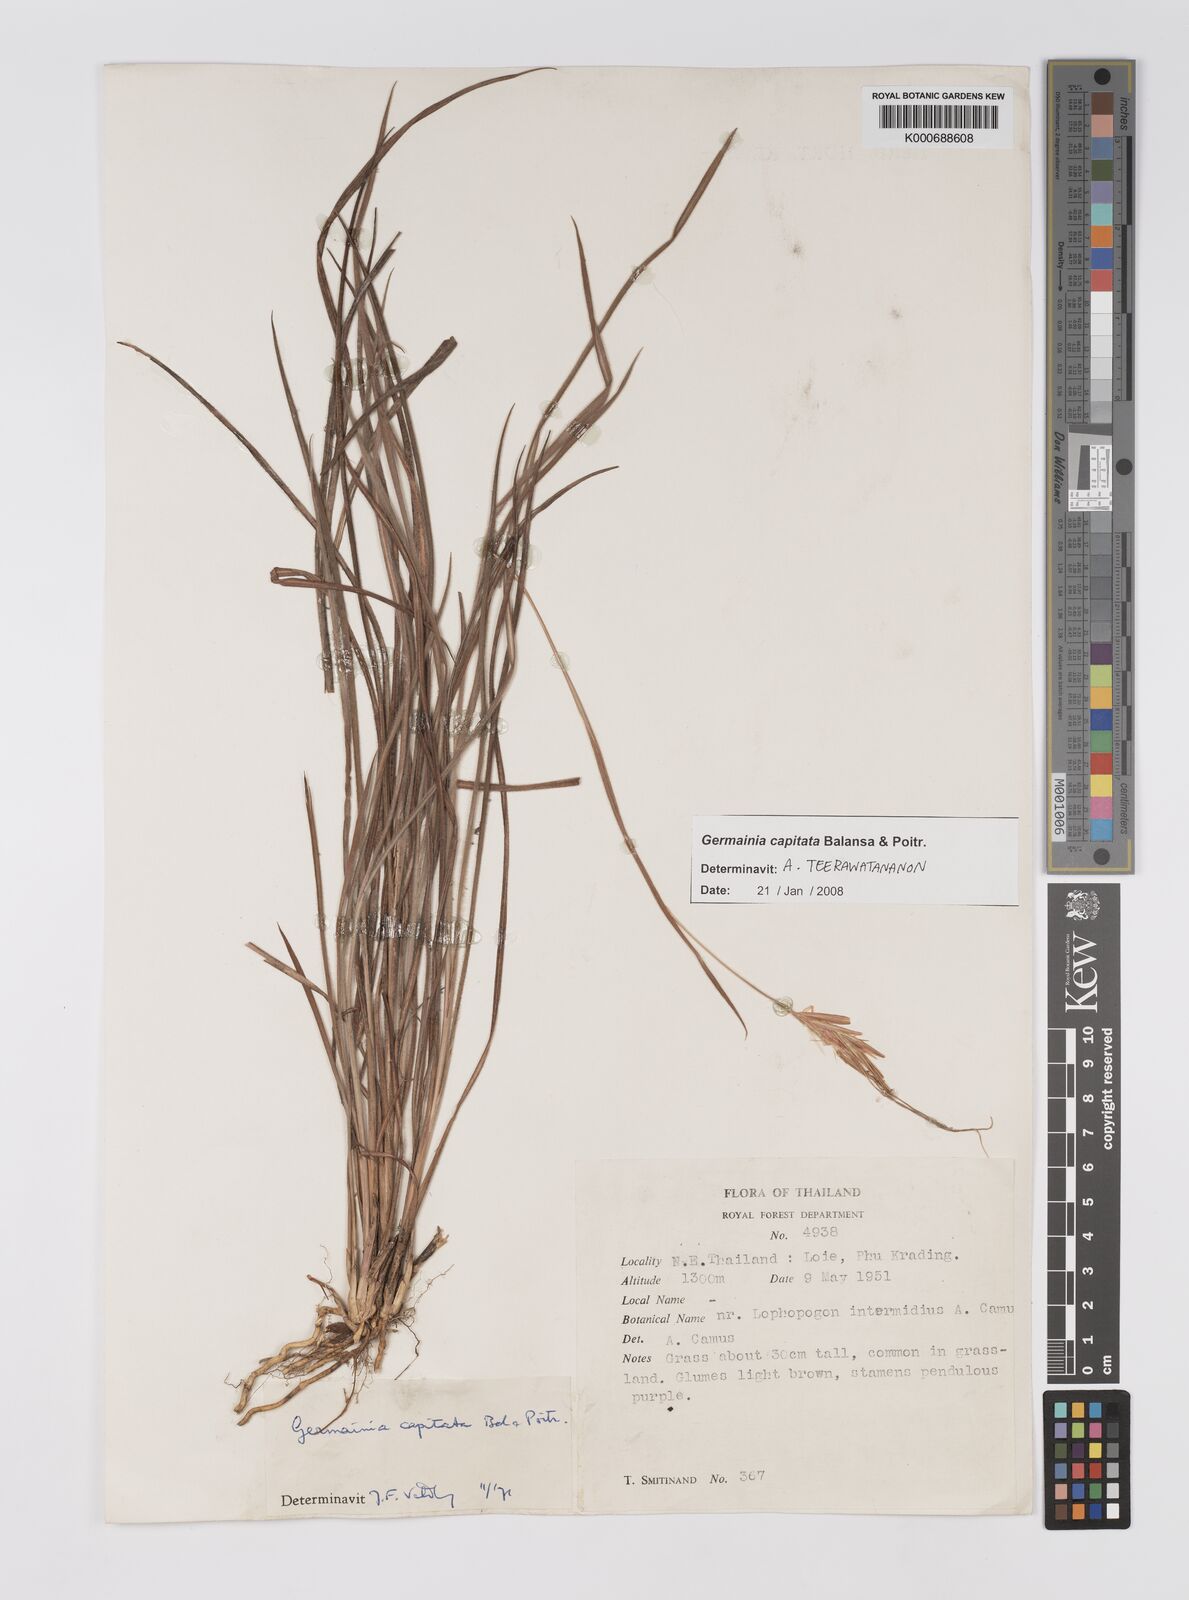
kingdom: Plantae
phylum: Tracheophyta
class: Liliopsida
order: Poales
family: Poaceae
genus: Germainia
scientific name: Germainia capitata
